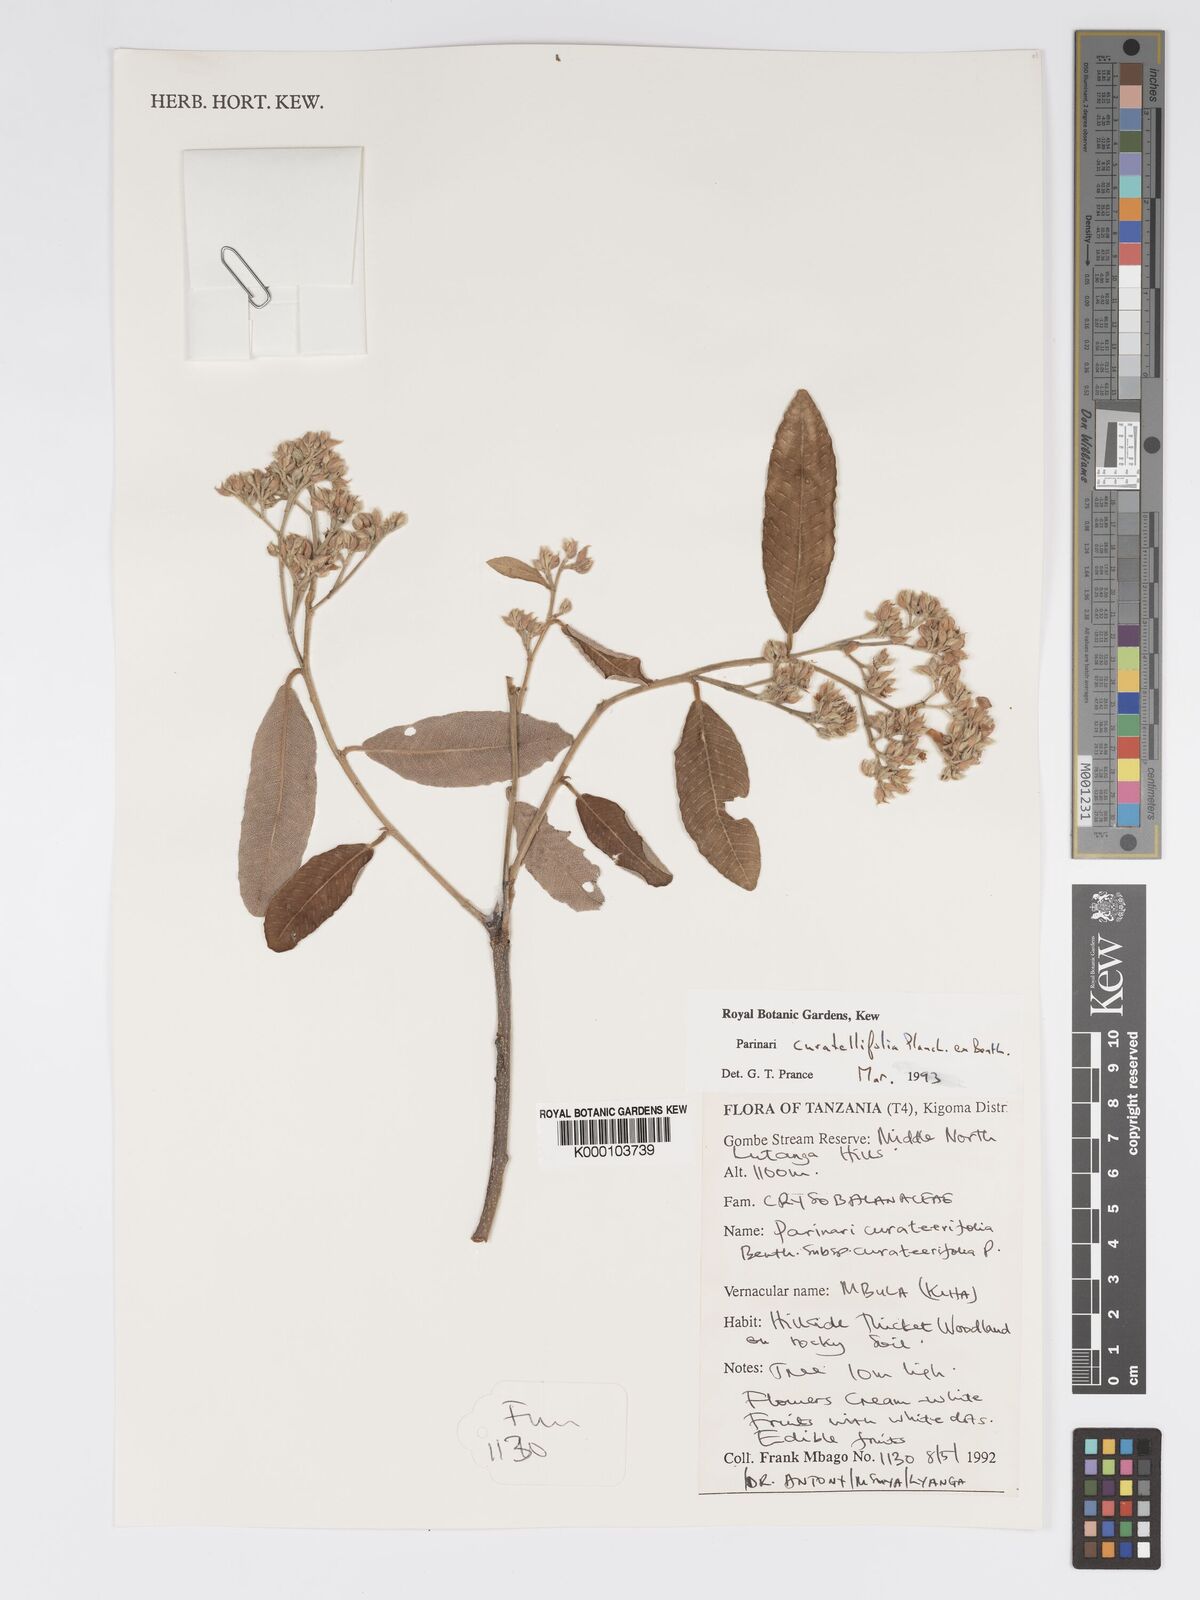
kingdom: Plantae
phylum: Tracheophyta
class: Magnoliopsida
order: Malpighiales
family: Chrysobalanaceae
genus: Parinari
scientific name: Parinari curatellifolia
